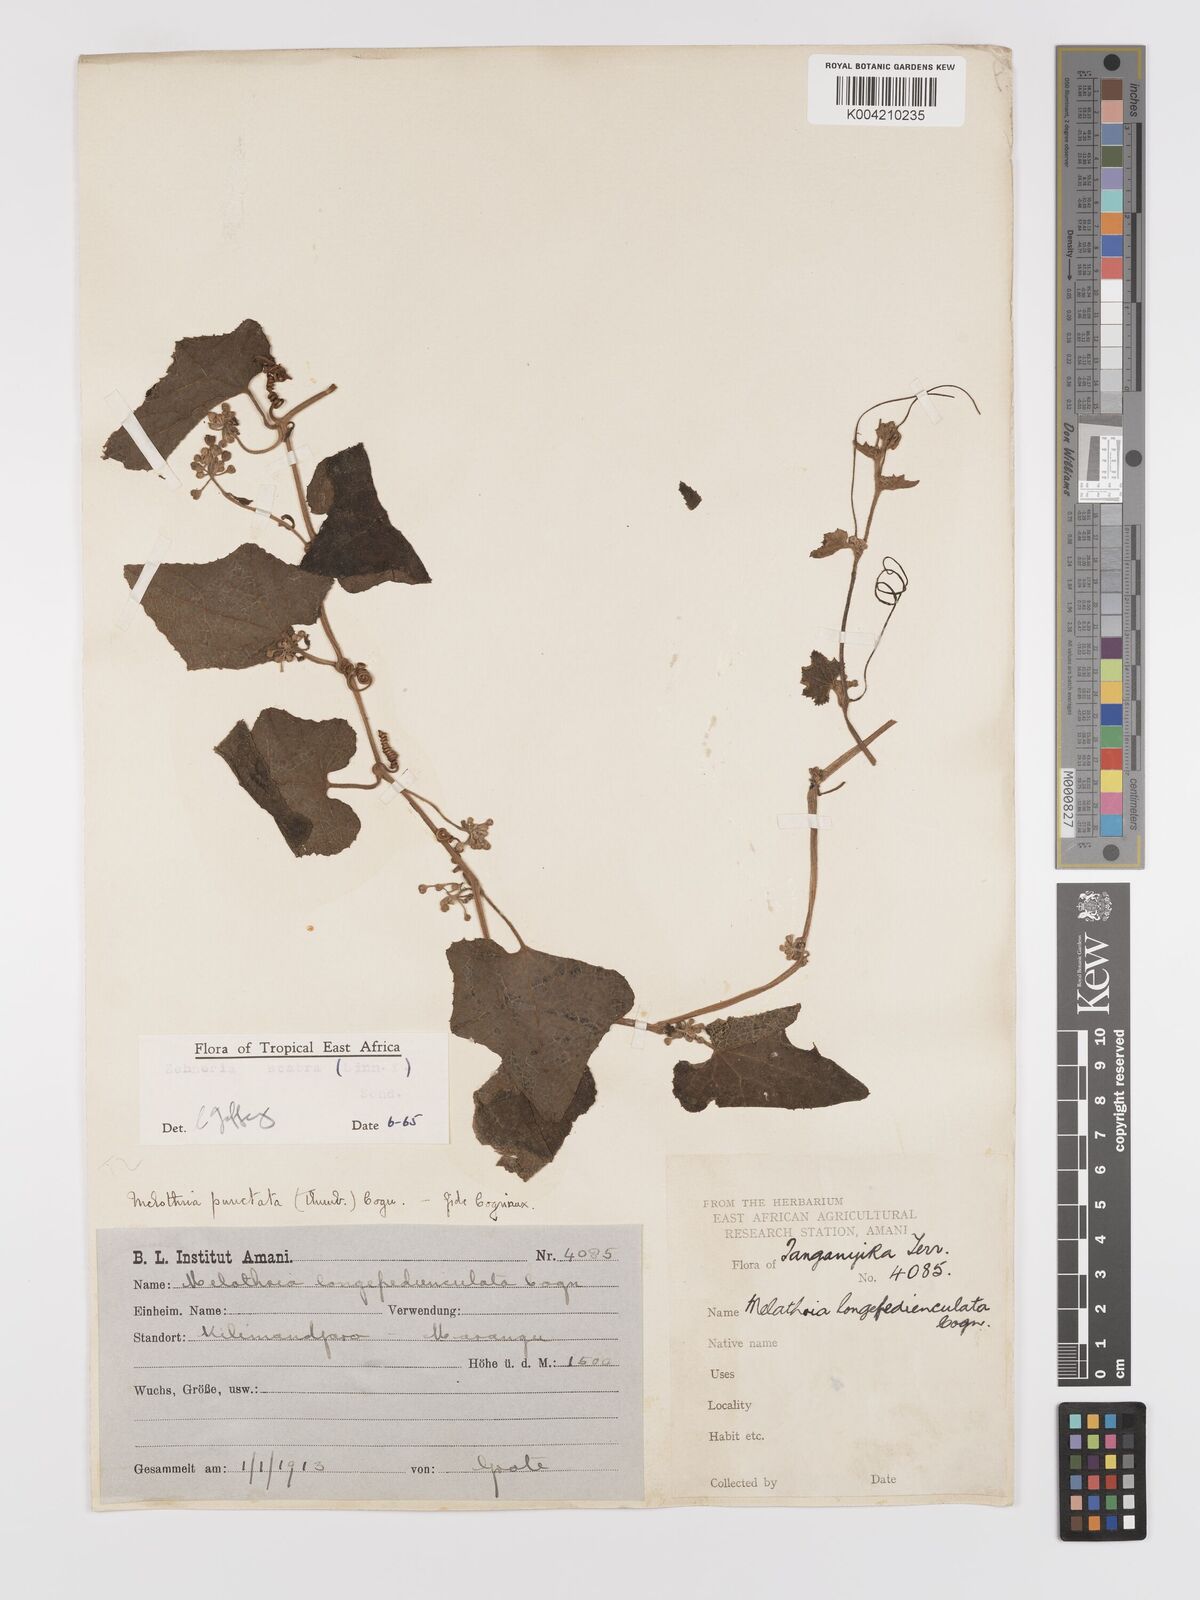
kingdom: Plantae
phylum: Tracheophyta
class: Magnoliopsida
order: Cucurbitales
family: Cucurbitaceae
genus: Zehneria
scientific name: Zehneria scabra
